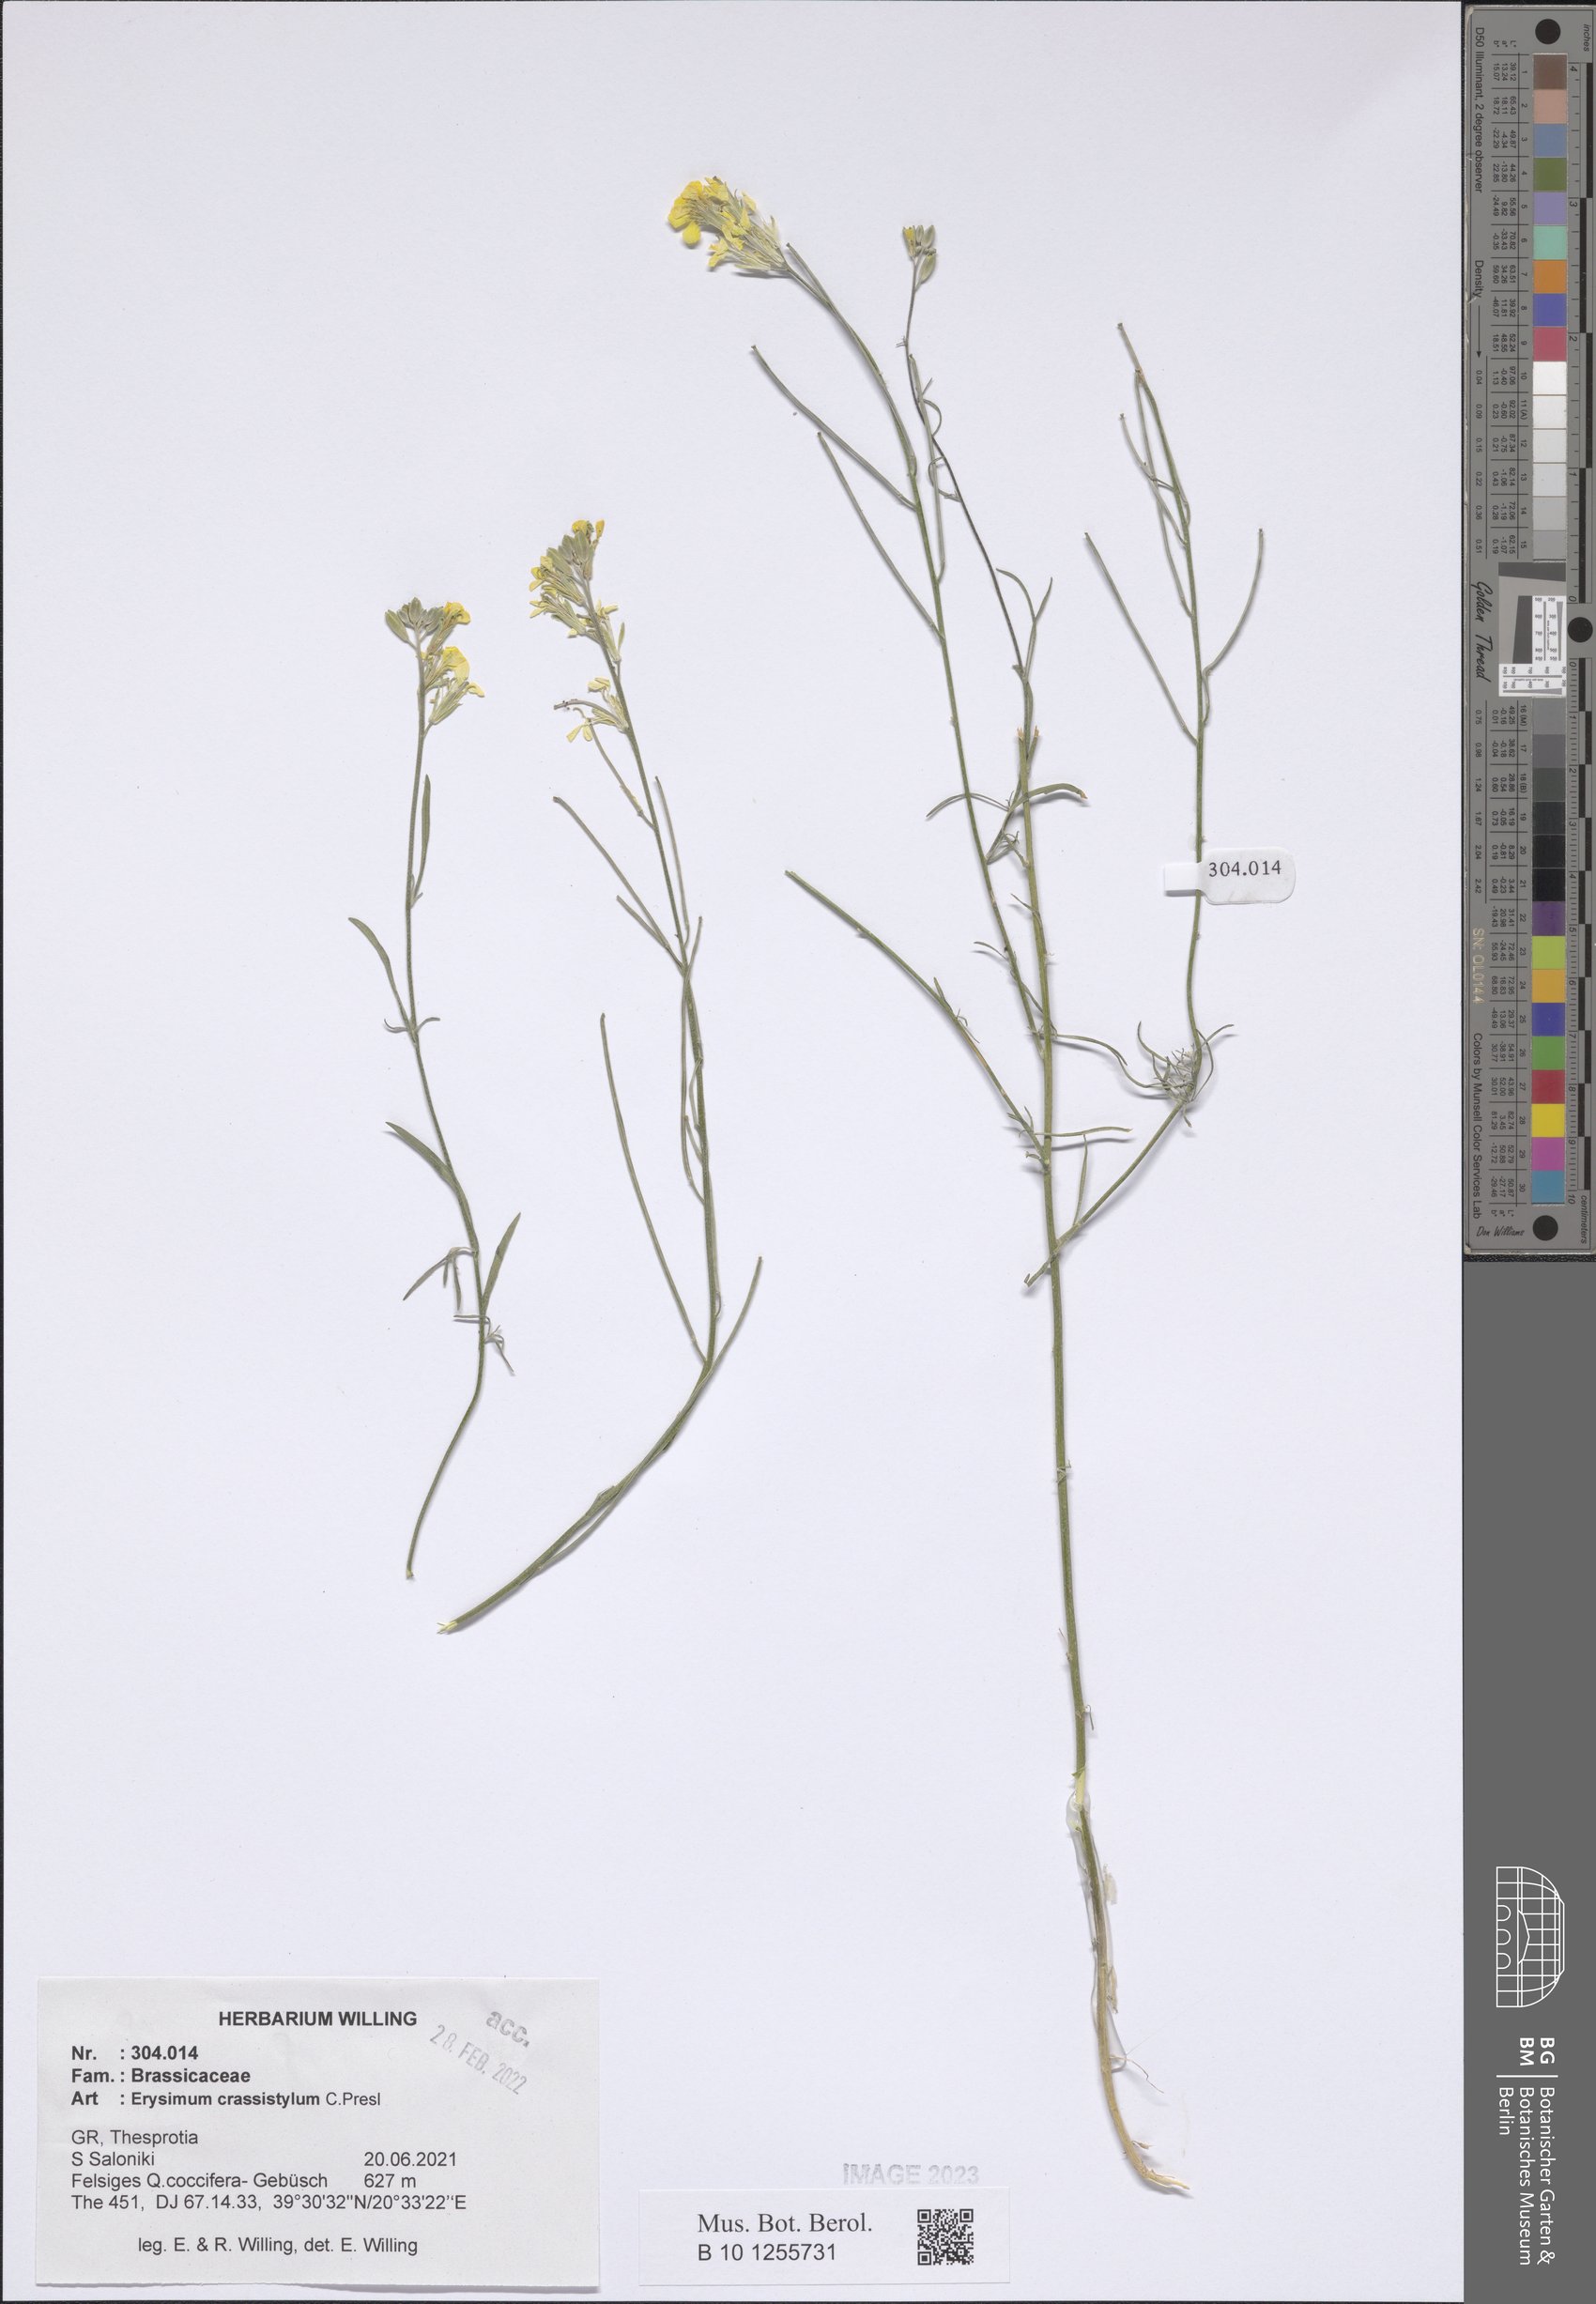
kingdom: Plantae
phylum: Tracheophyta
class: Magnoliopsida
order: Brassicales
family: Brassicaceae
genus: Erysimum
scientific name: Erysimum crassistylum
